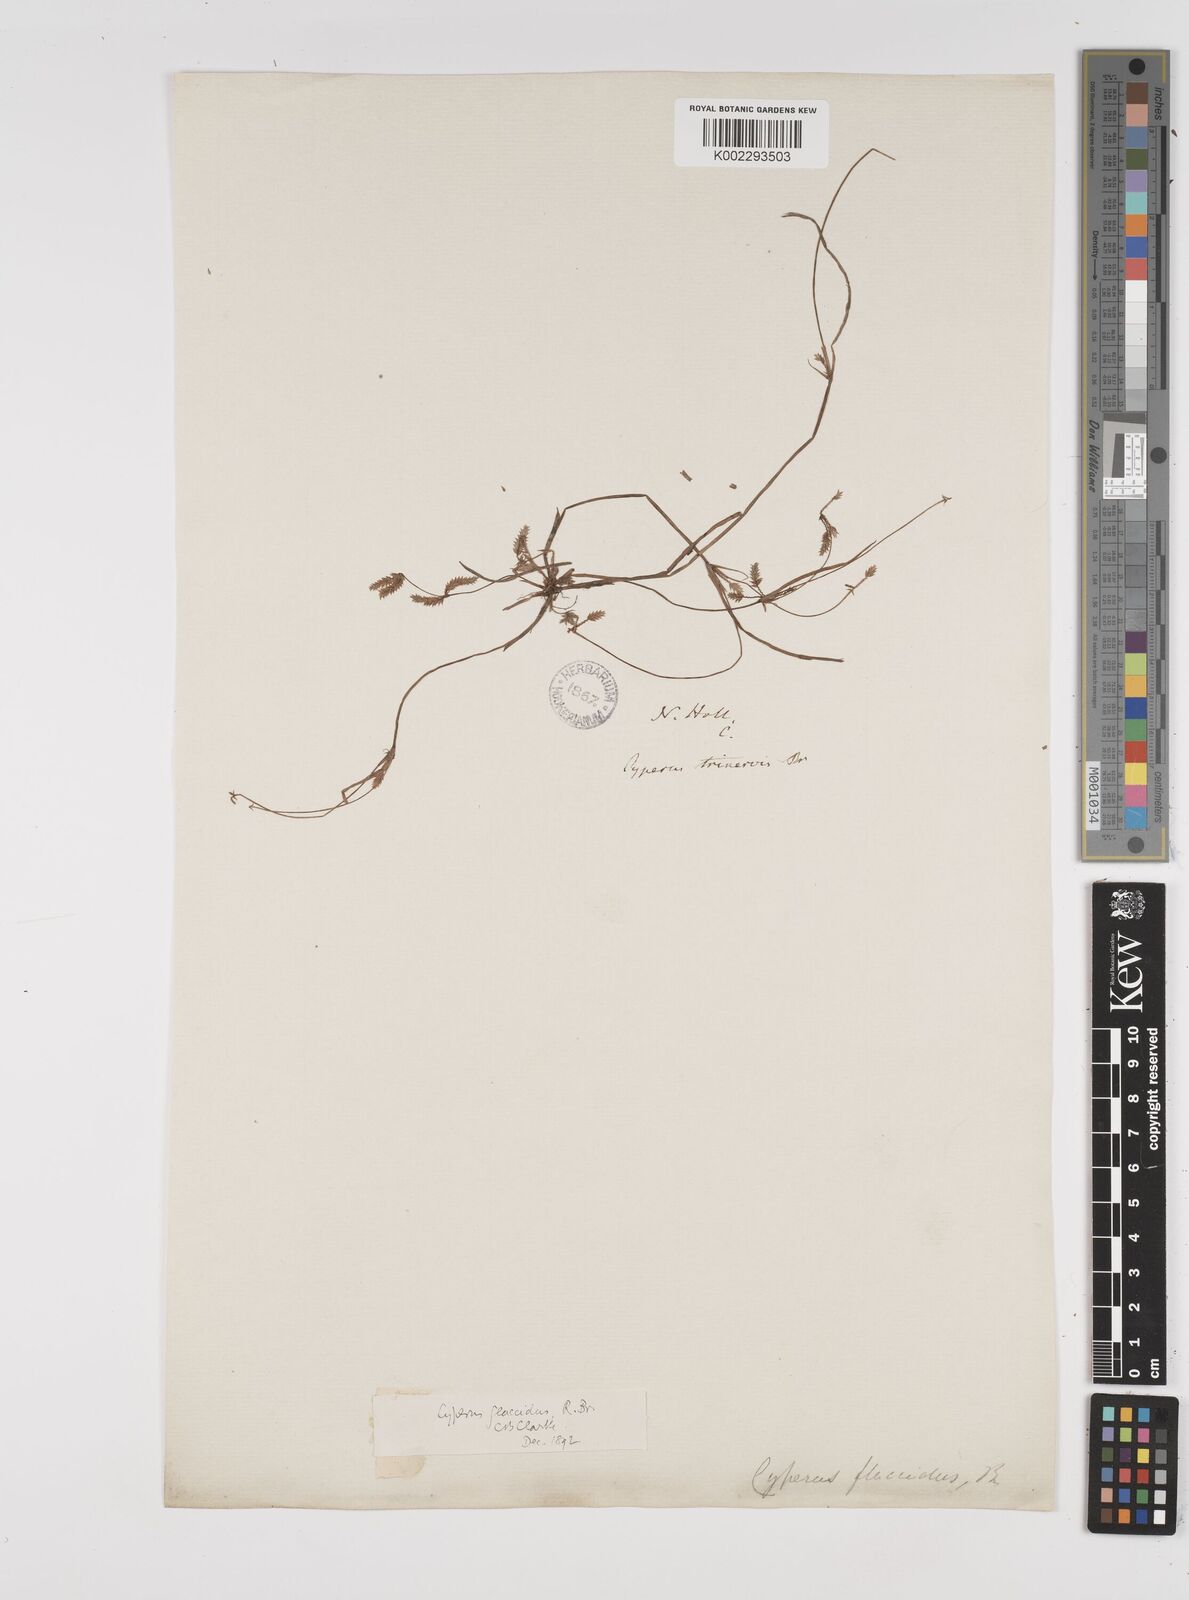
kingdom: Plantae
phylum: Tracheophyta
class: Liliopsida
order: Poales
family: Cyperaceae
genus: Cyperus
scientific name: Cyperus flaccidus
